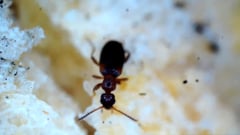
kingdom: Animalia
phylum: Arthropoda
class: Insecta
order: Coleoptera
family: Anthicidae
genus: Omonadus
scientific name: Omonadus floralis
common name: Narrownecked grain beetle
